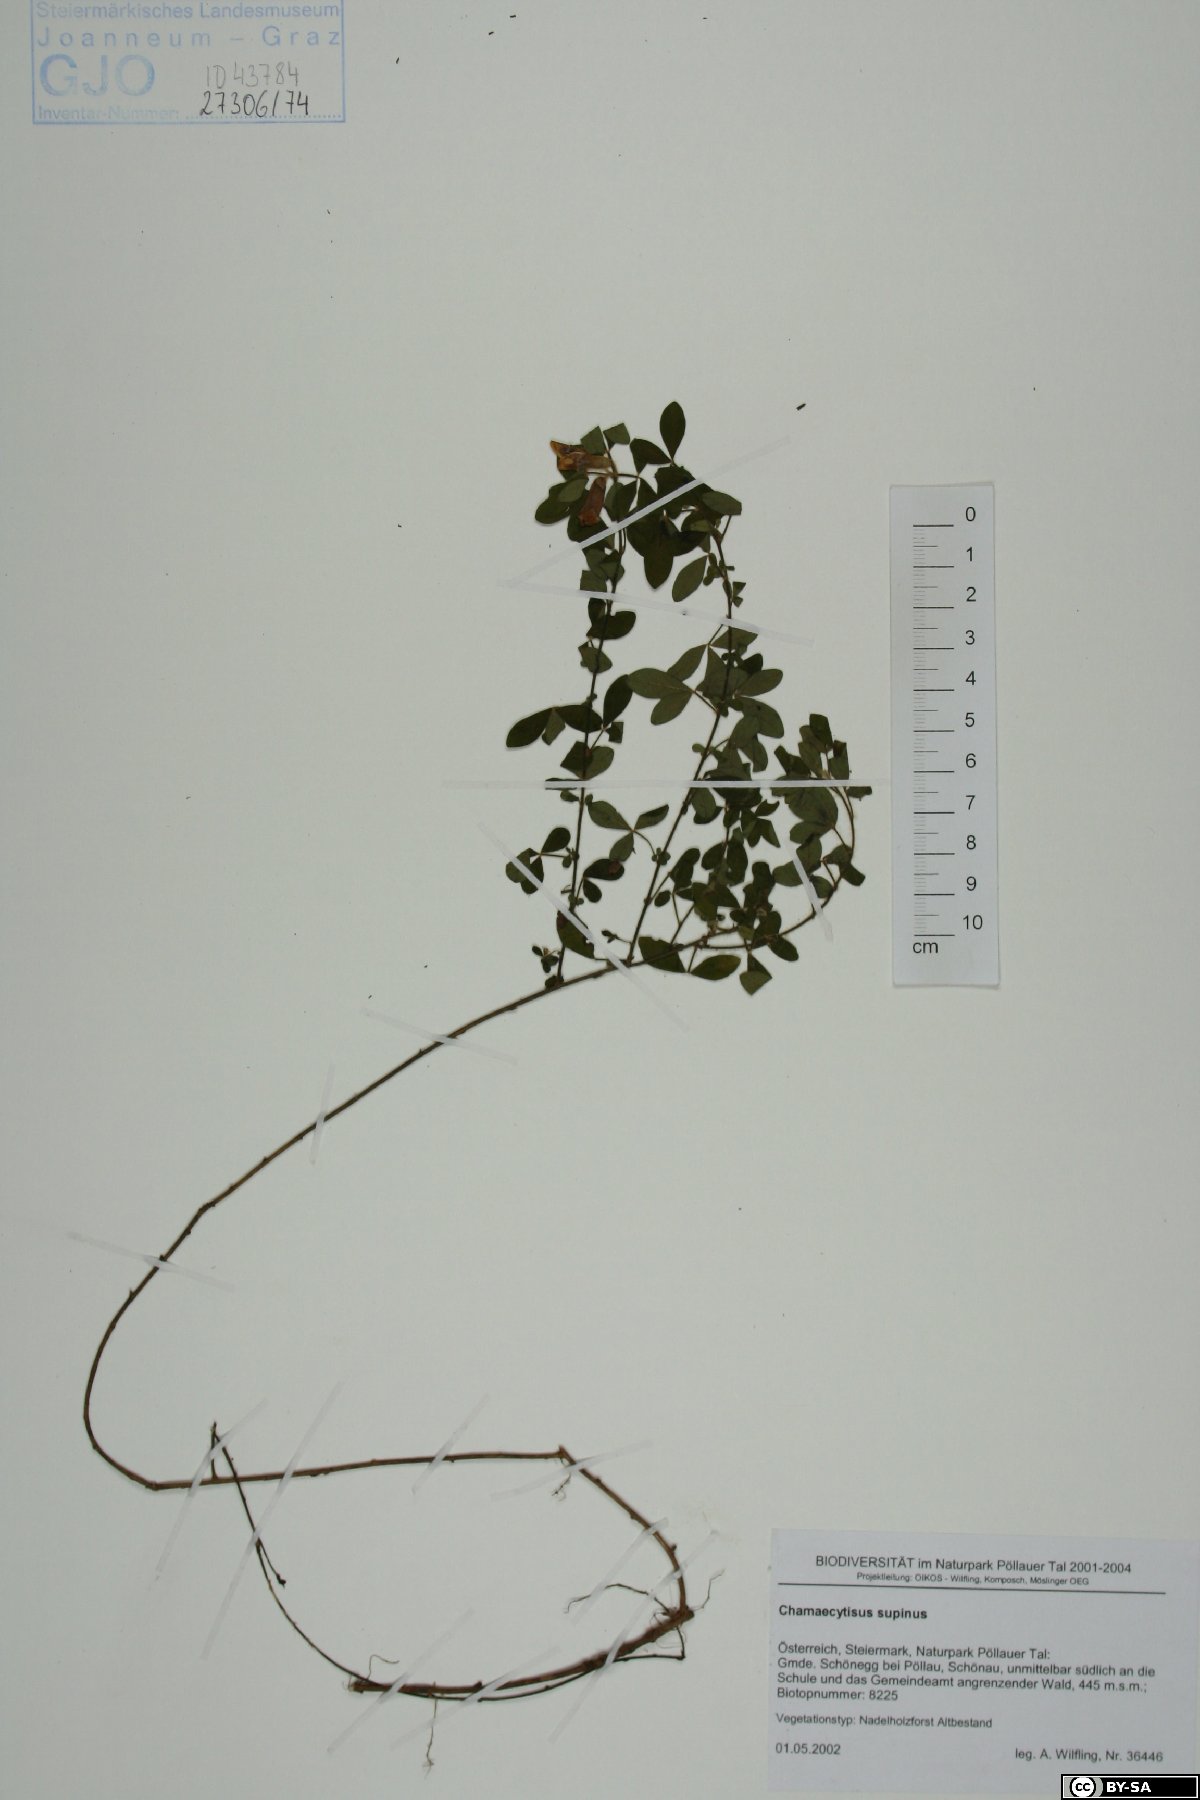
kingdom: Plantae
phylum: Tracheophyta
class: Magnoliopsida
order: Fabales
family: Fabaceae
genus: Chamaecytisus
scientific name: Chamaecytisus supinus
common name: Clustered broom
